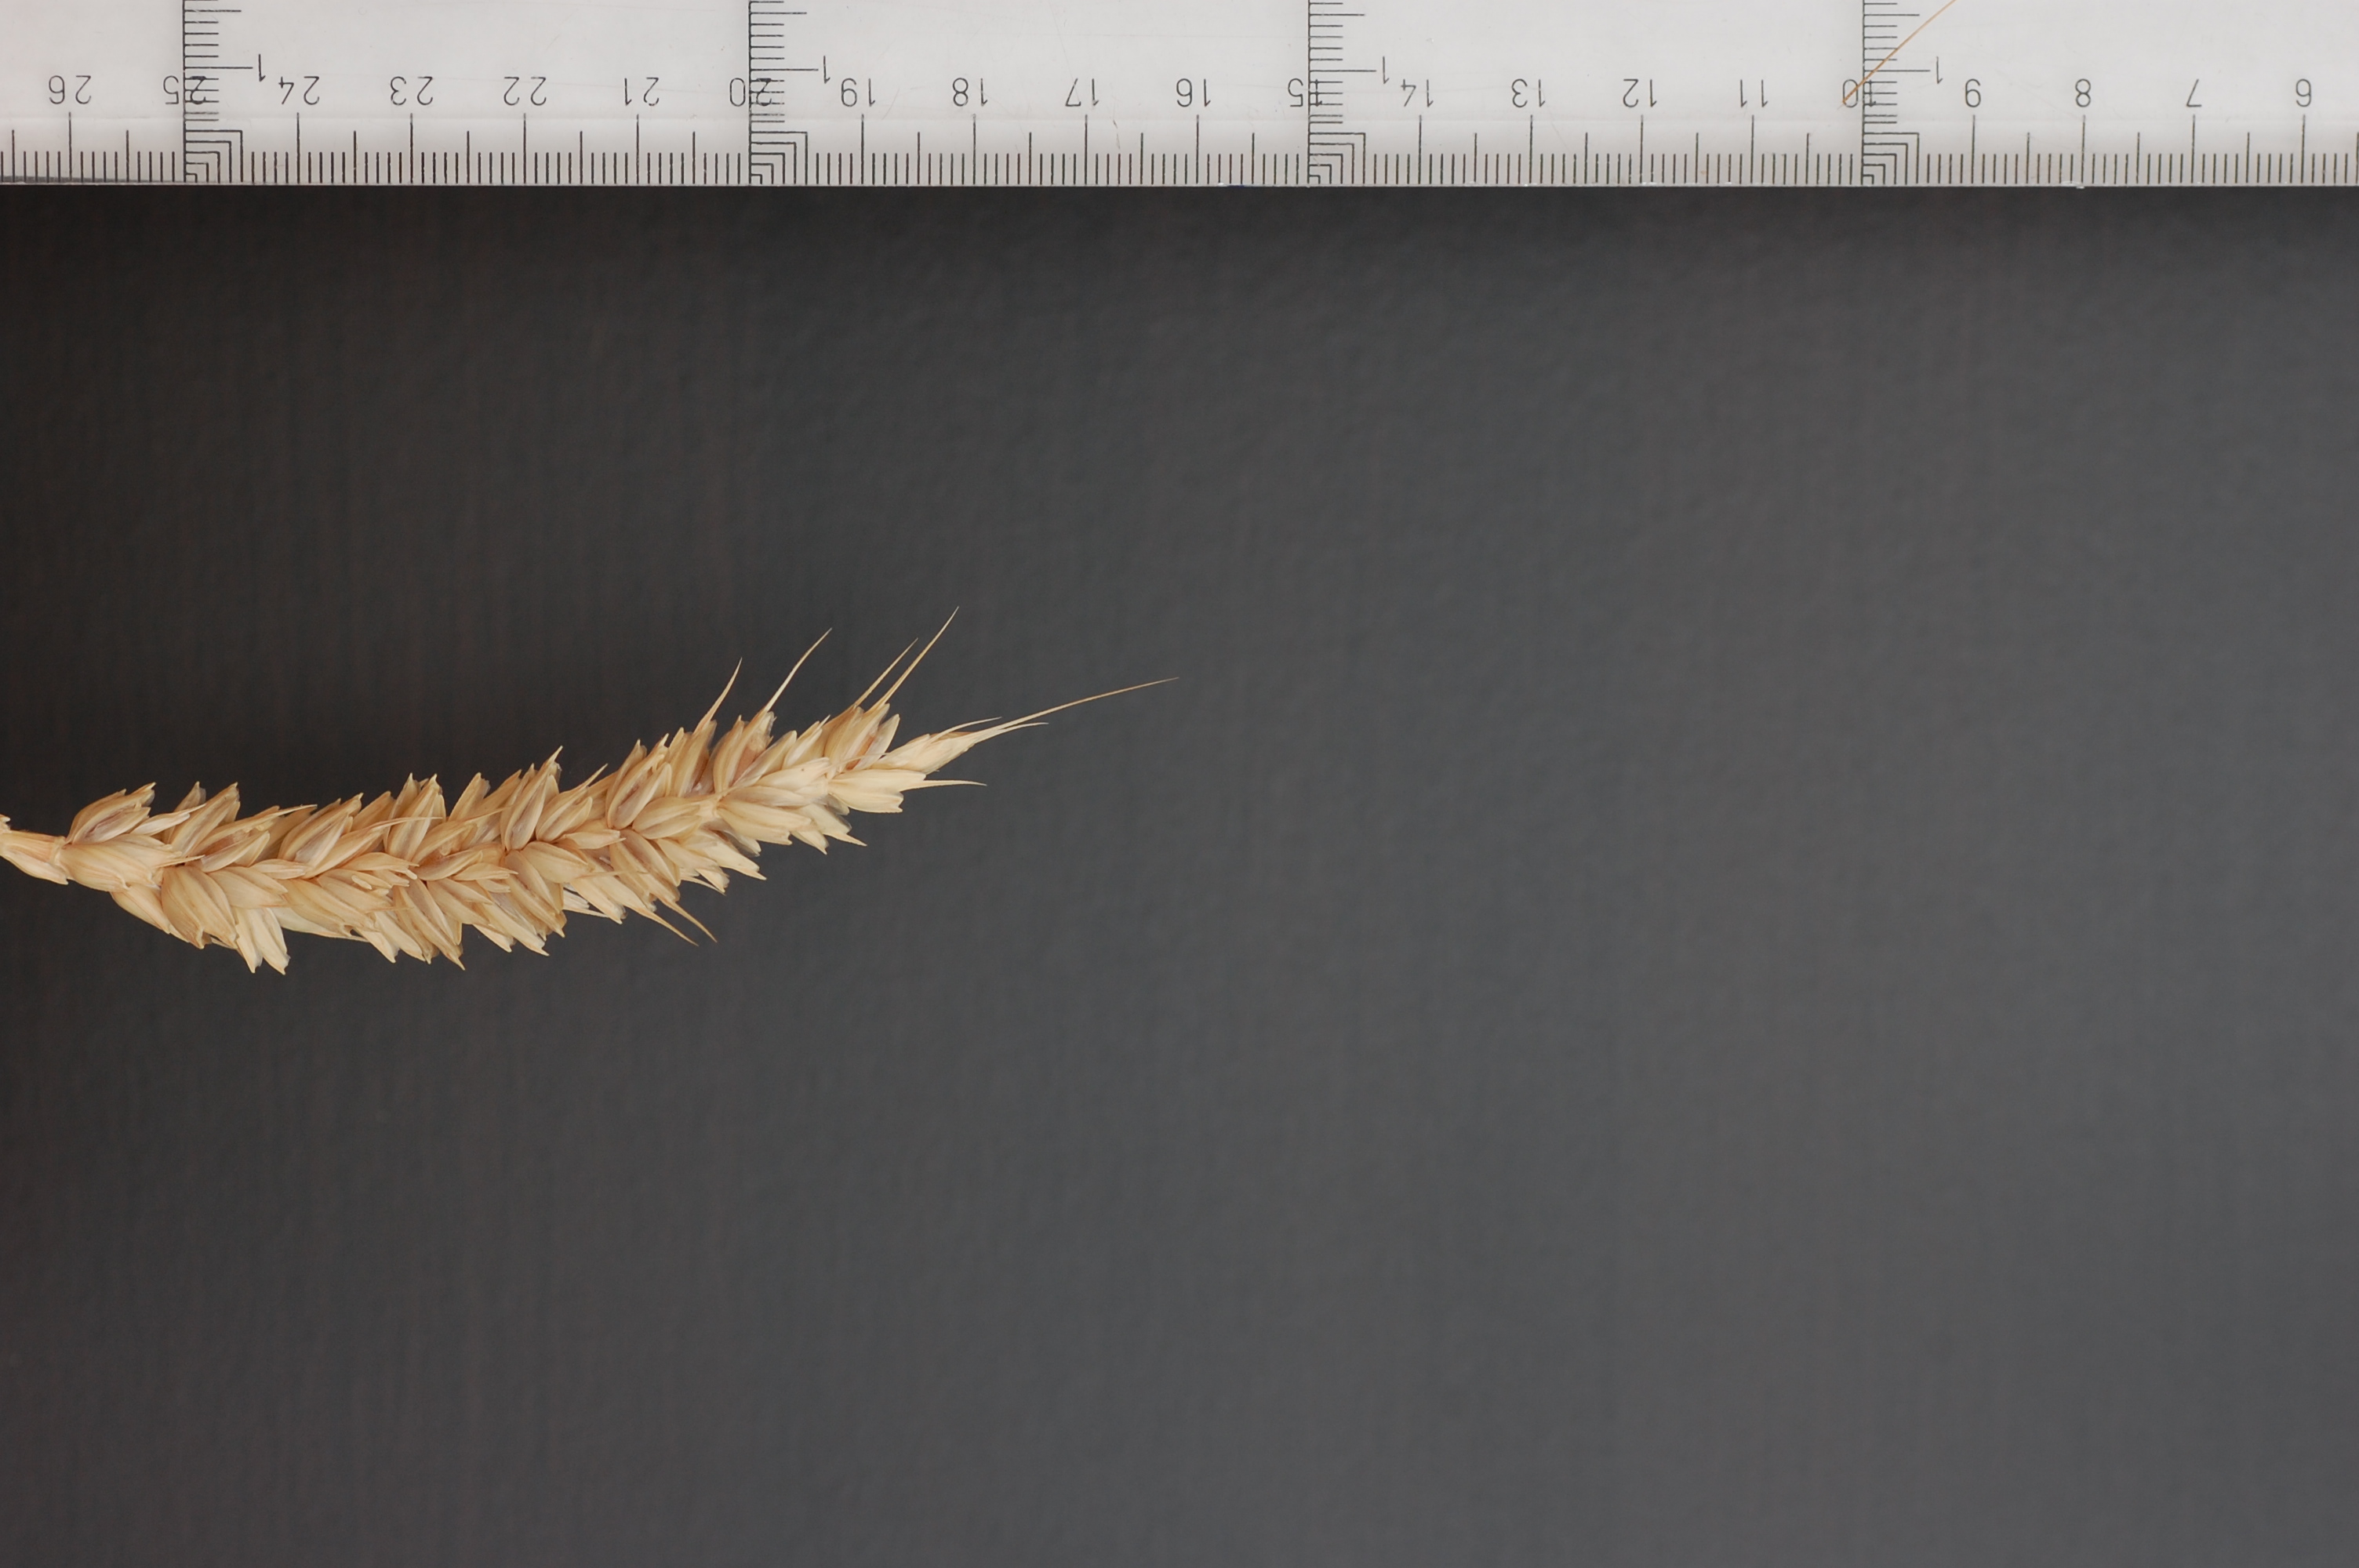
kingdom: Plantae
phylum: Tracheophyta
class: Liliopsida
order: Poales
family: Poaceae
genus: Triticum
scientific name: Triticum aestivum
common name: Common wheat
